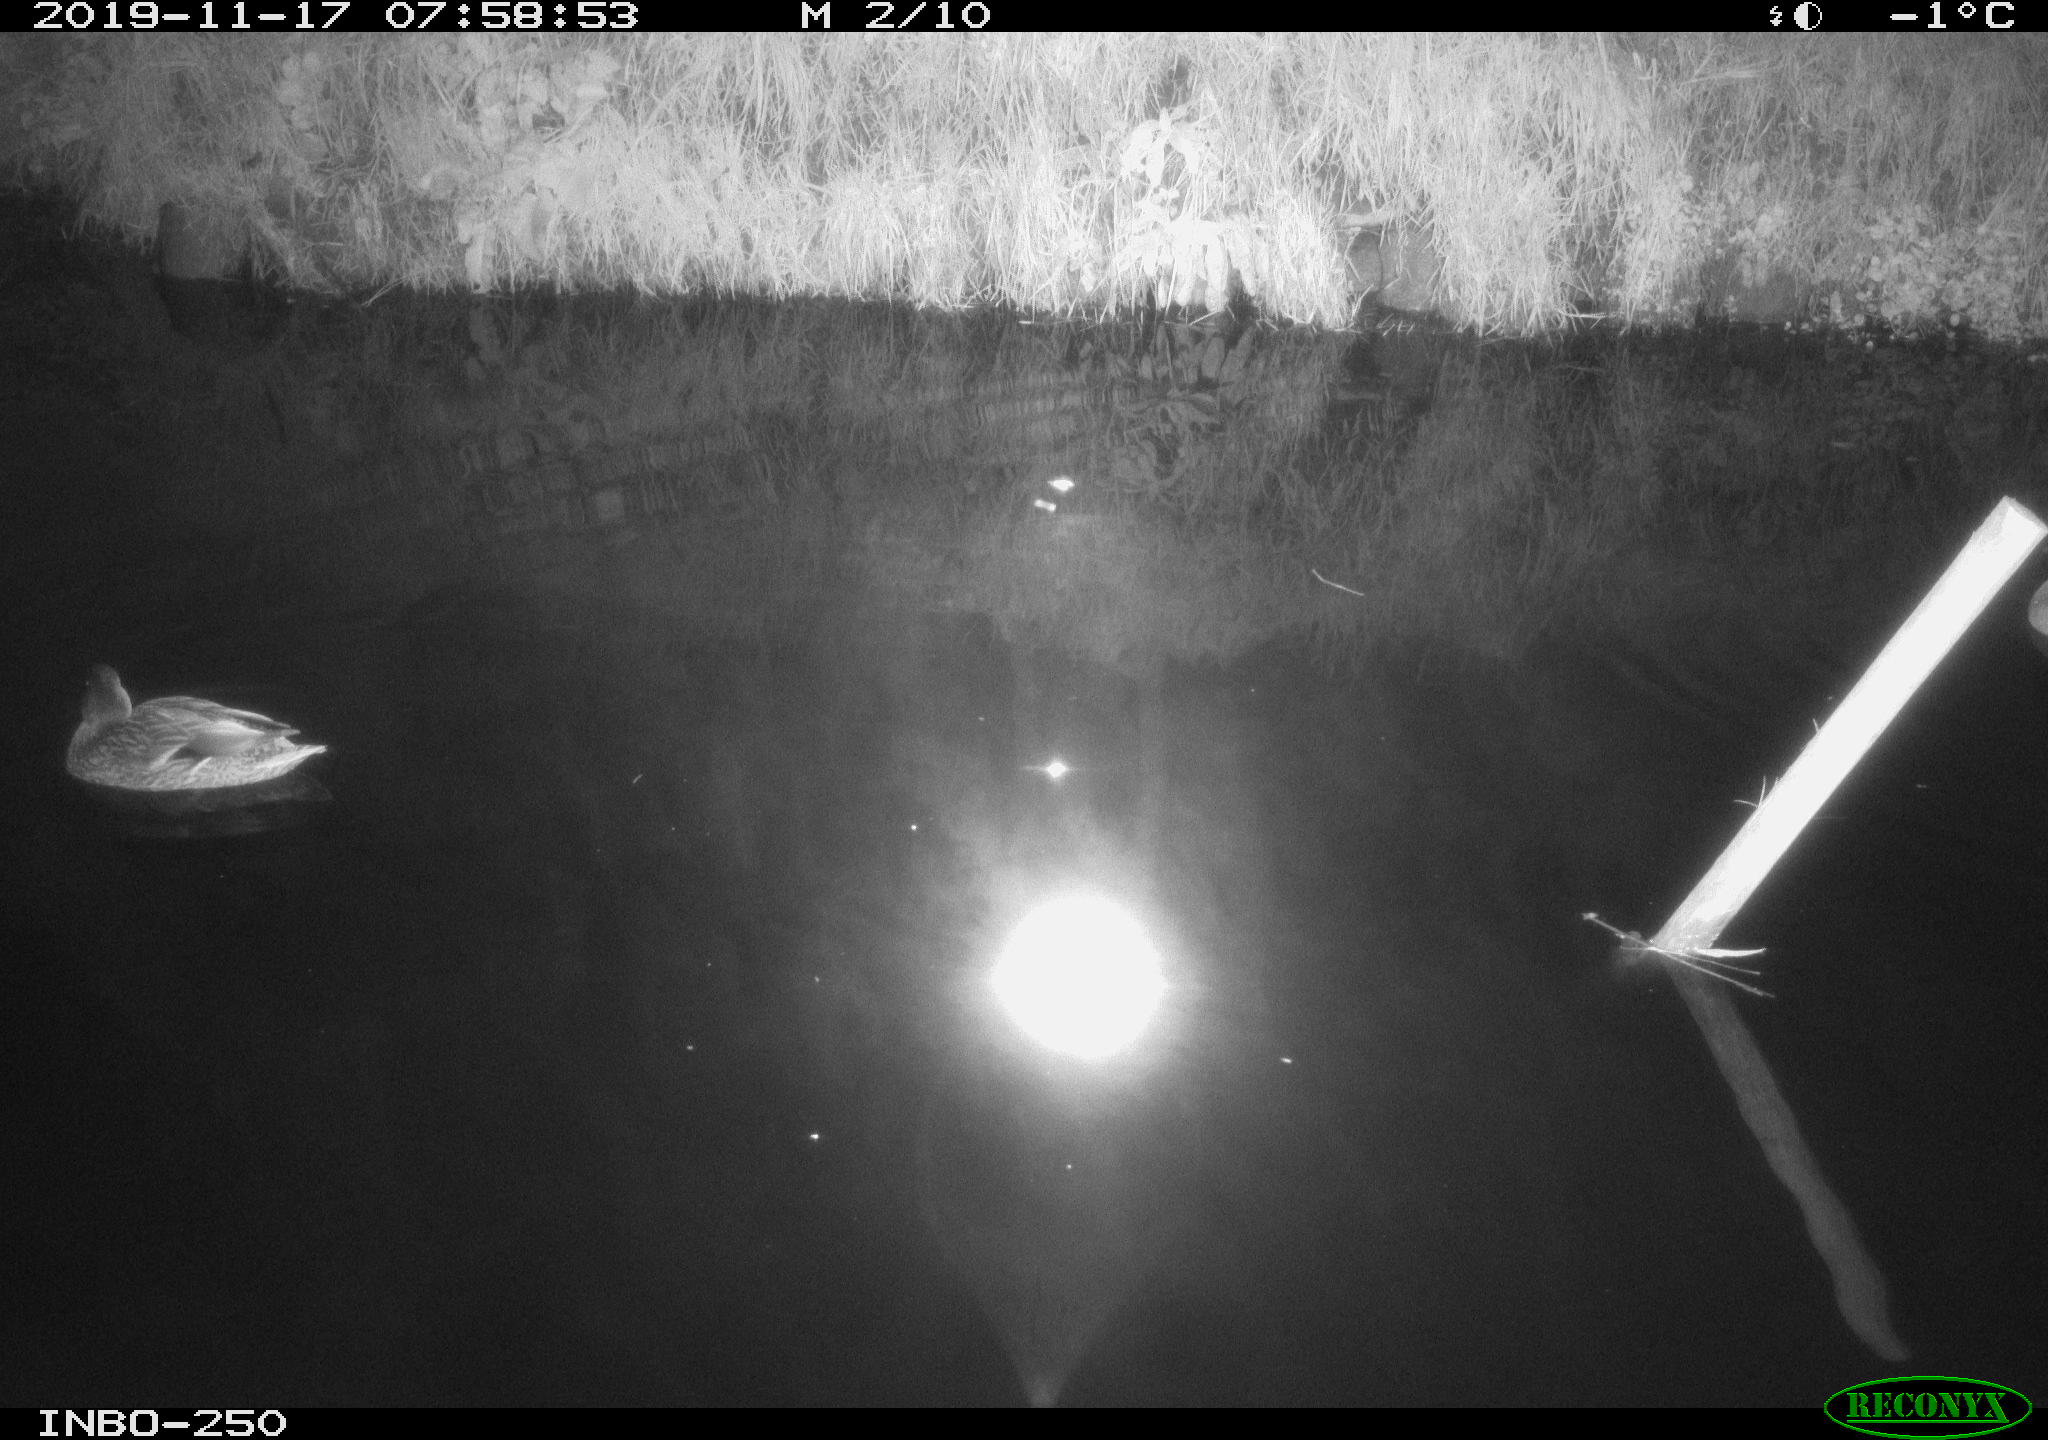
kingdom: Animalia
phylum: Chordata
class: Aves
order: Anseriformes
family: Anatidae
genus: Anas
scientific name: Anas platyrhynchos
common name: Mallard
